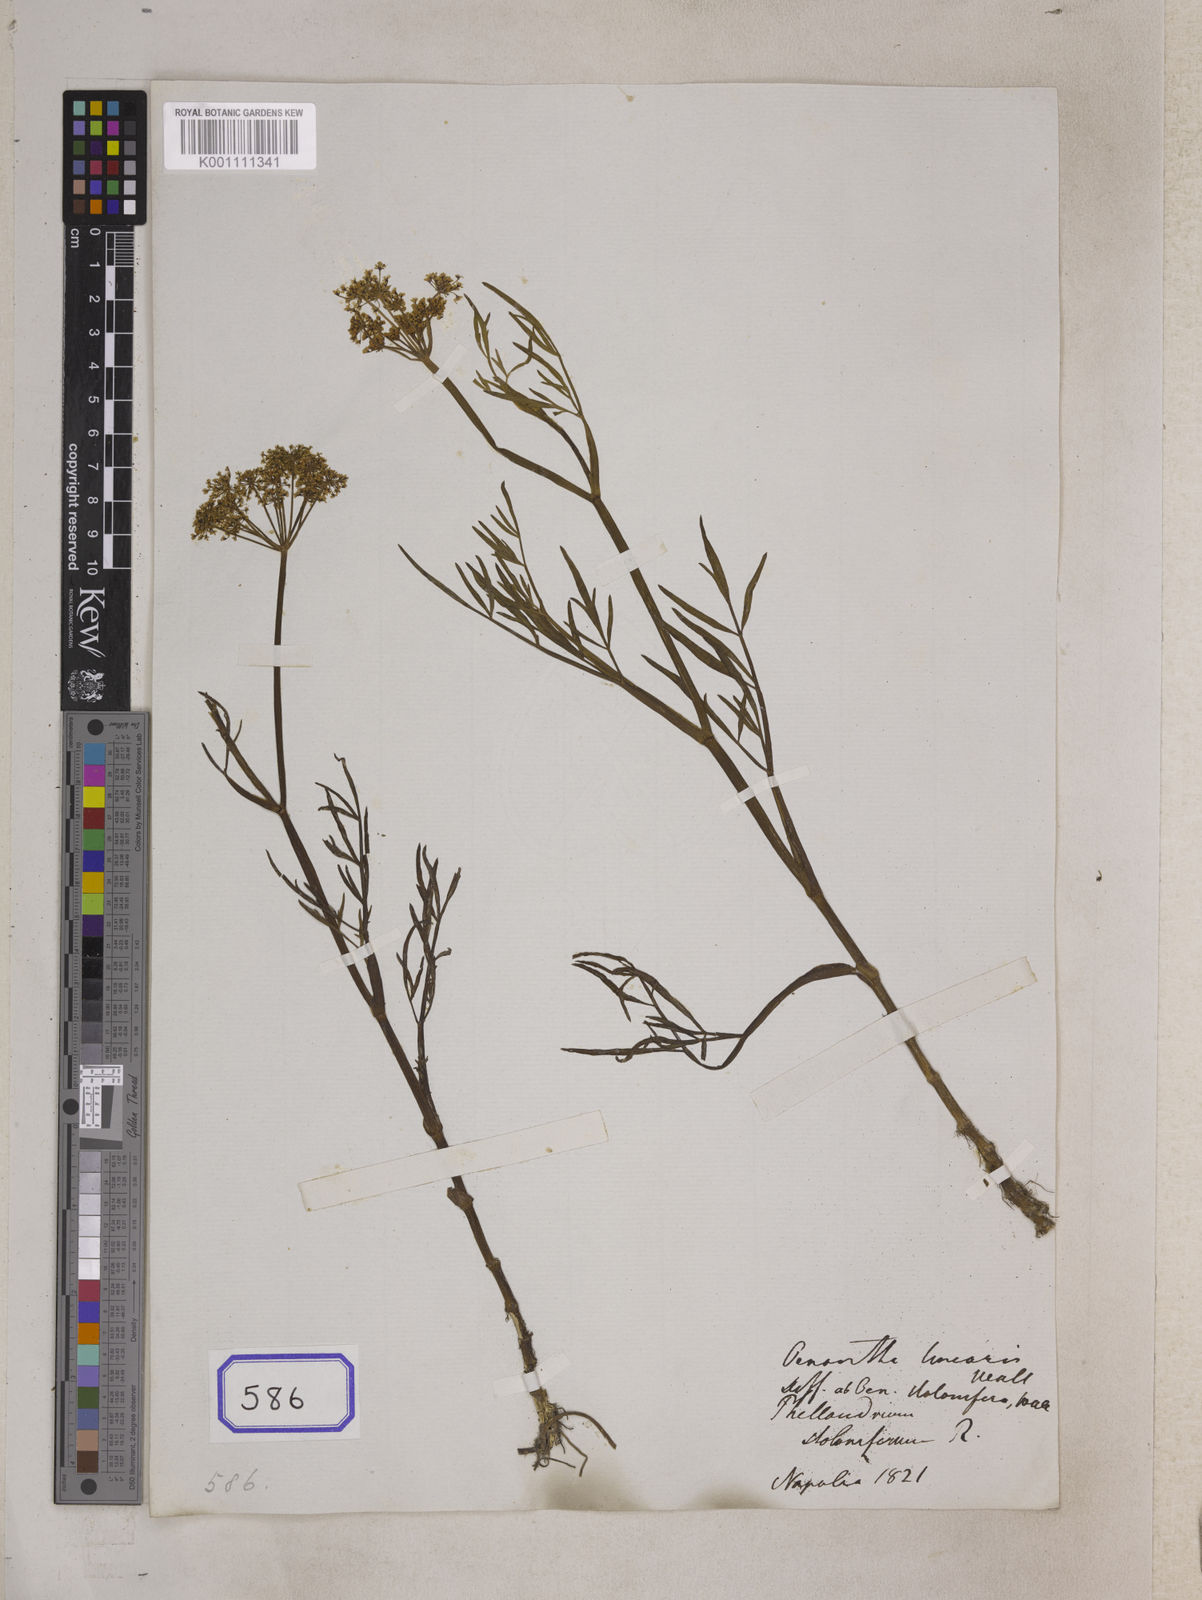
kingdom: Plantae
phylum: Tracheophyta
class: Magnoliopsida
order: Apiales
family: Apiaceae
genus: Oenanthe
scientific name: Oenanthe
